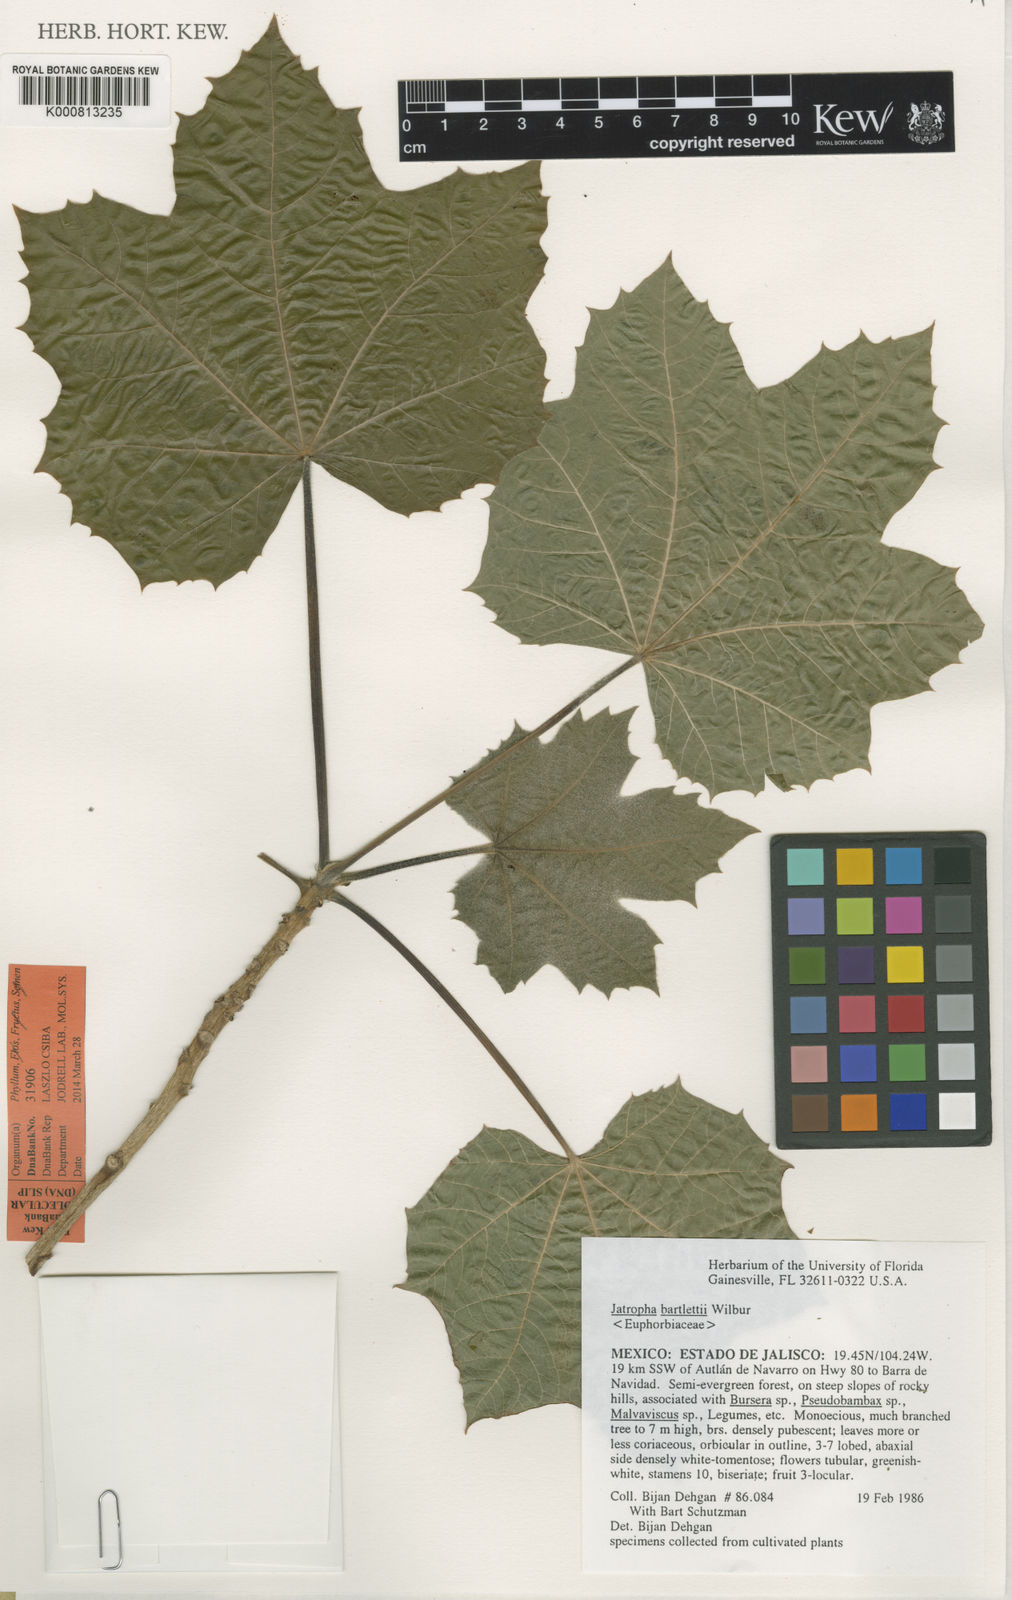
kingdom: Plantae
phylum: Tracheophyta
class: Magnoliopsida
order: Malpighiales
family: Euphorbiaceae
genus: Jatropha
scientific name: Jatropha bartlettii
